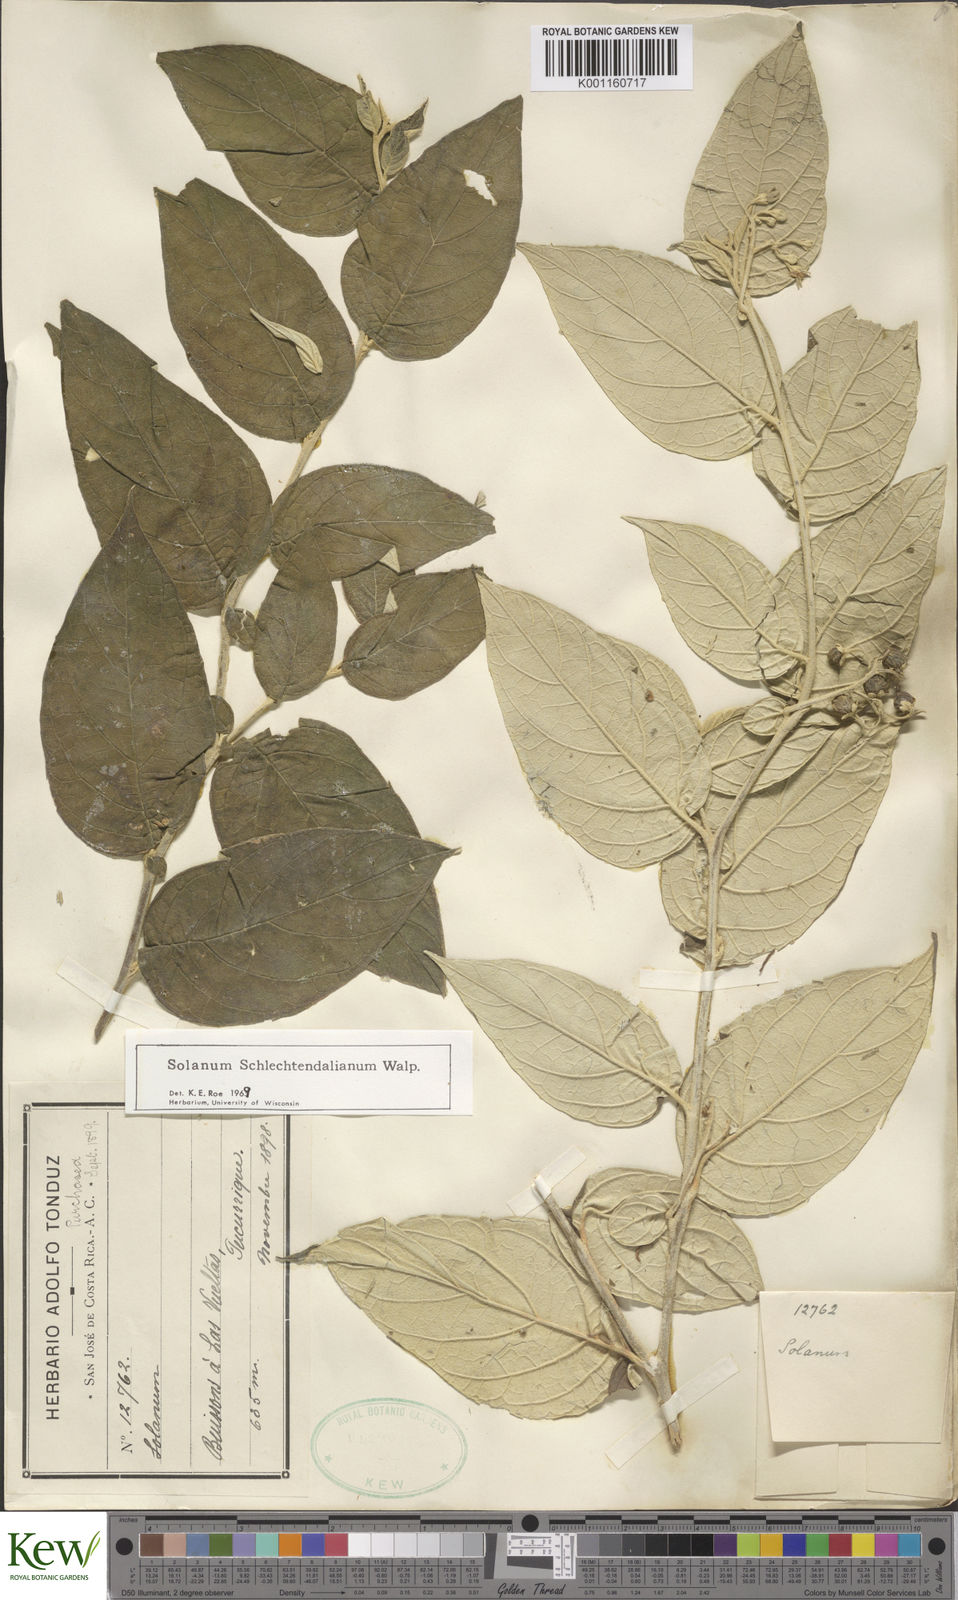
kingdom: Plantae
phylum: Tracheophyta
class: Magnoliopsida
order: Solanales
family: Solanaceae
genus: Solanum
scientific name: Solanum schlechtendalianum
